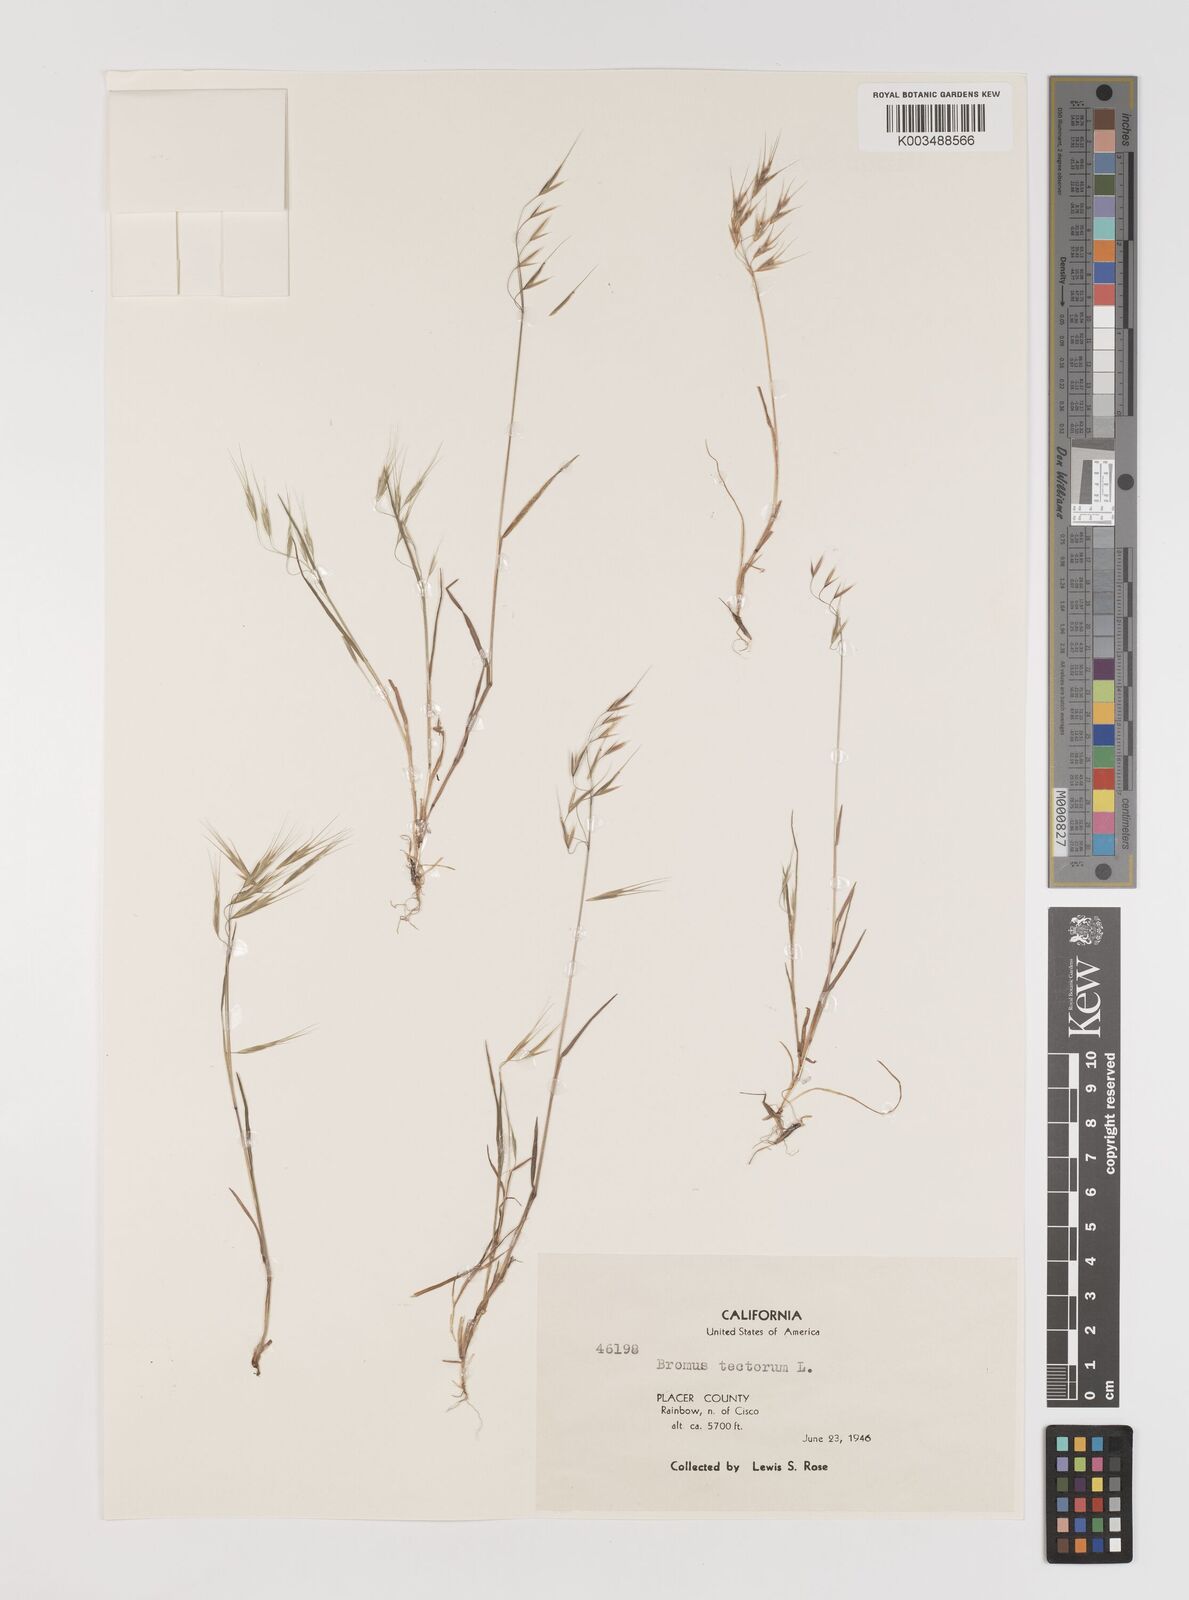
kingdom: Plantae
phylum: Tracheophyta
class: Liliopsida
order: Poales
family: Poaceae
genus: Bromus
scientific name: Bromus tectorum
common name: Cheatgrass
